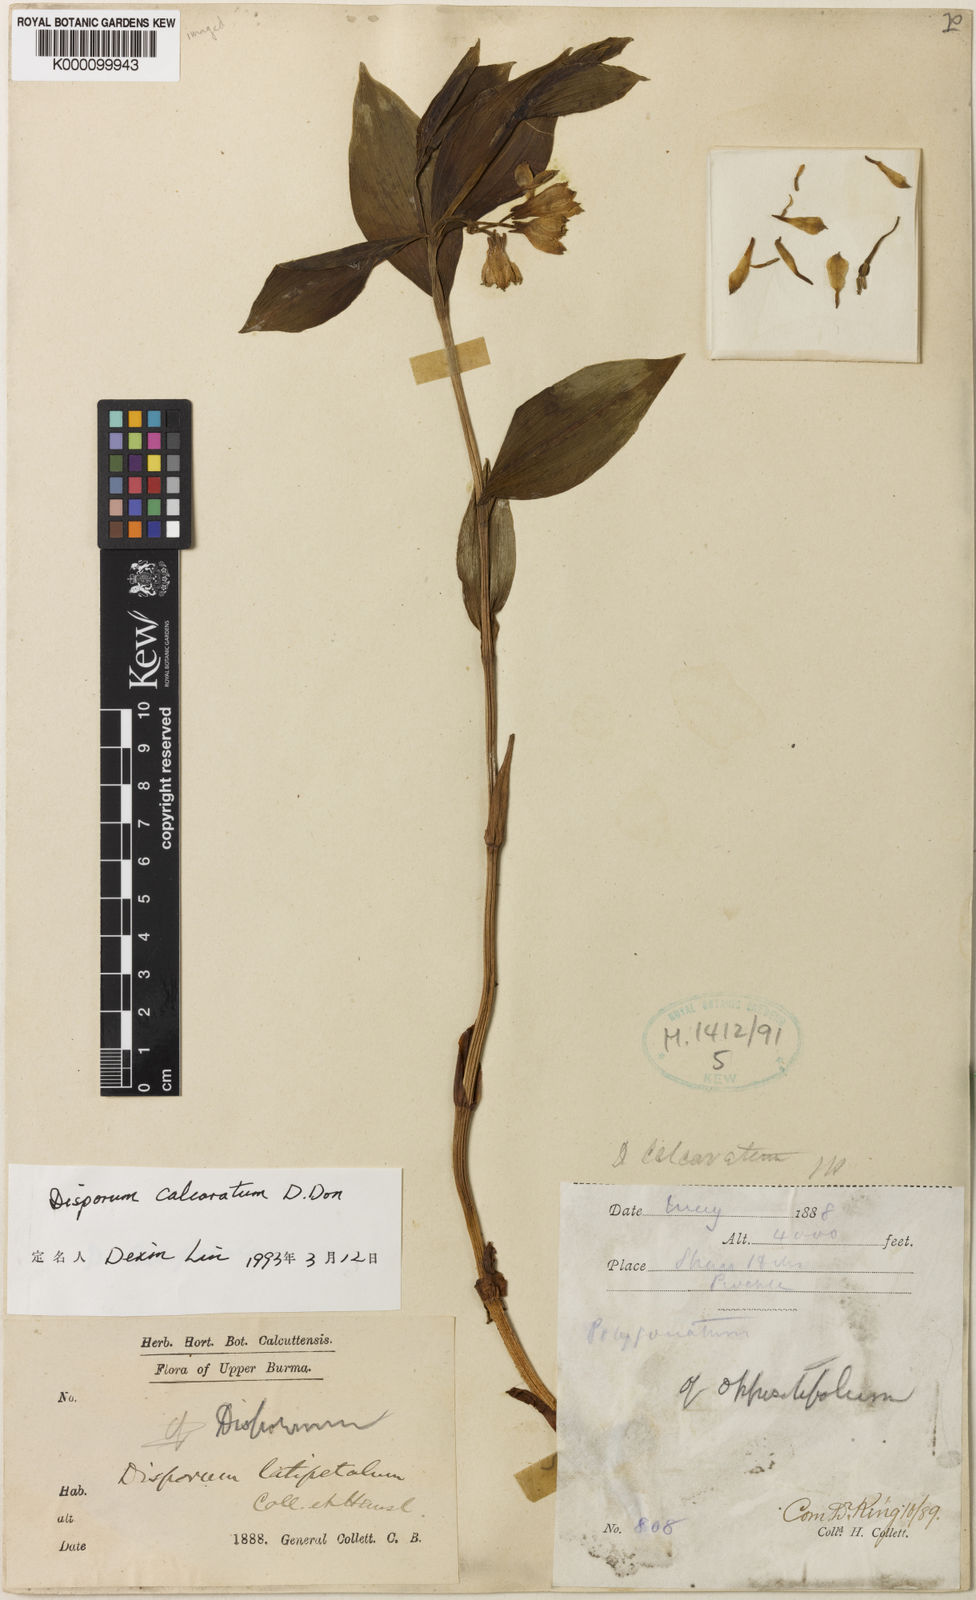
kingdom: Plantae
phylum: Tracheophyta
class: Liliopsida
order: Liliales
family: Colchicaceae
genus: Disporum
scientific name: Disporum
